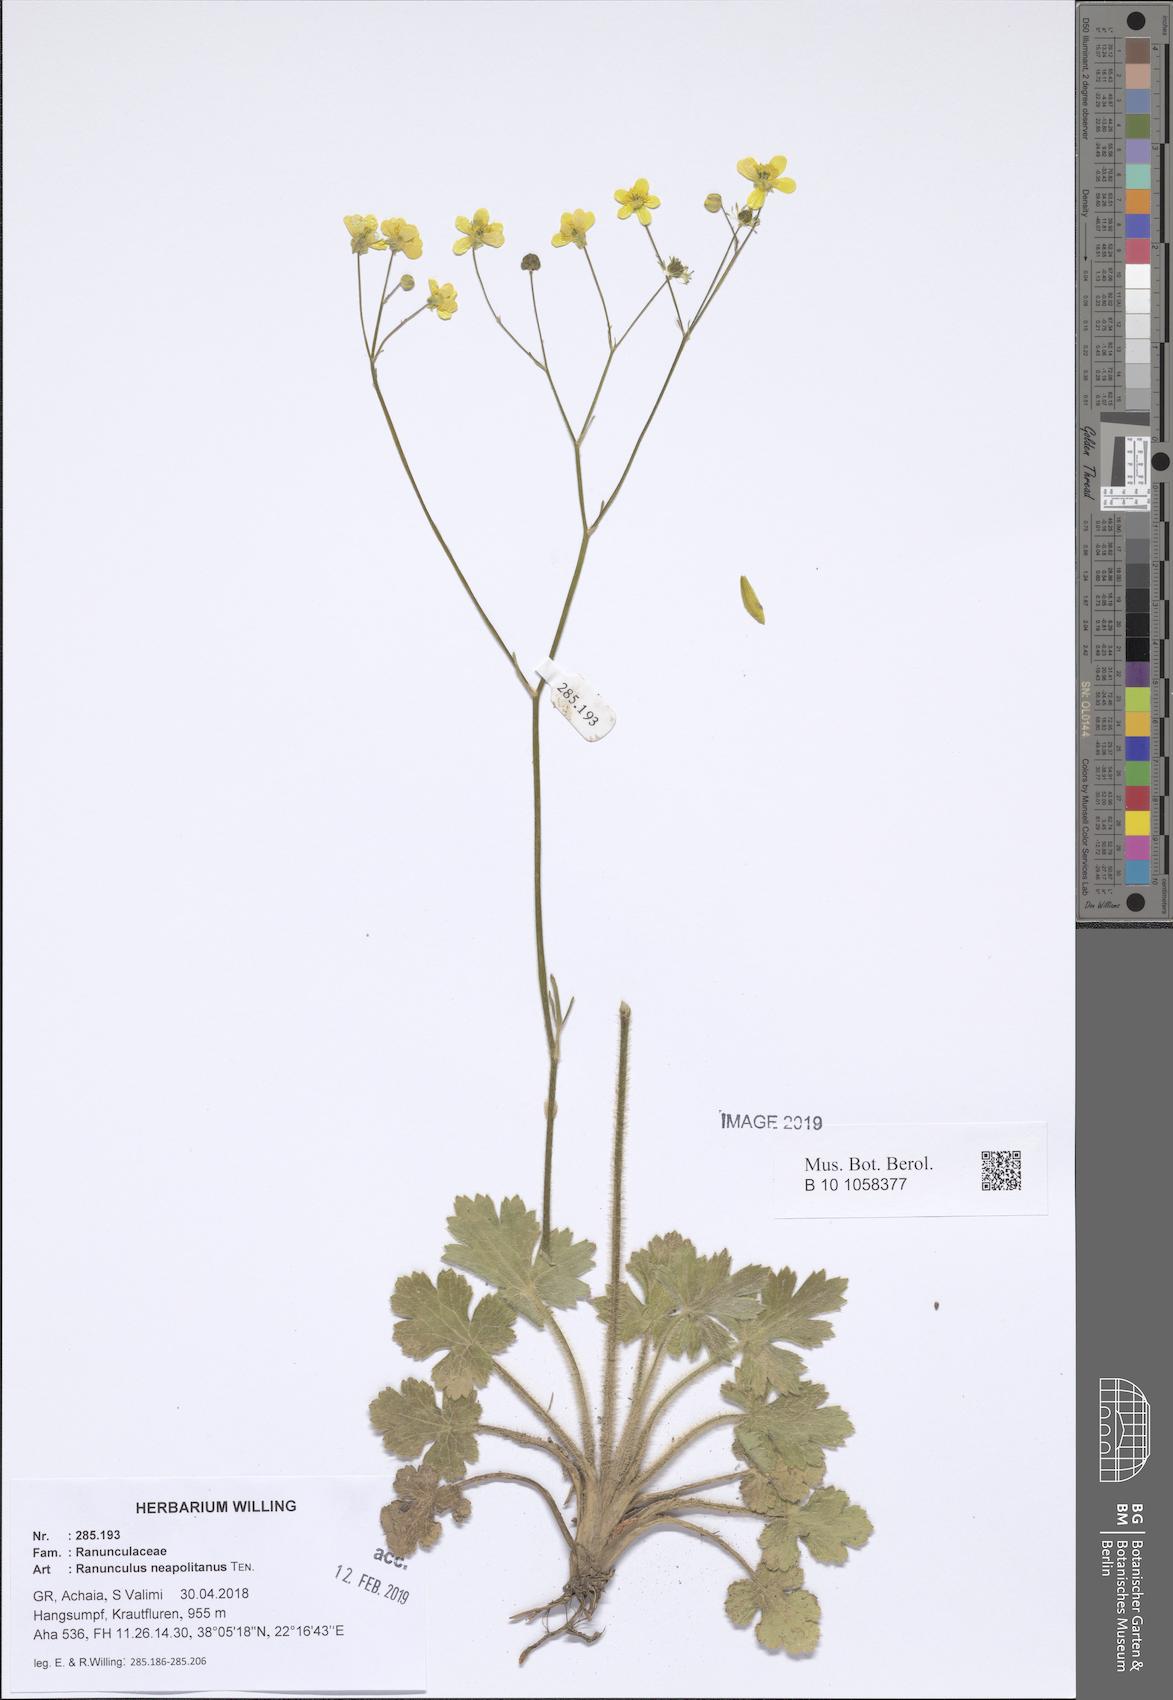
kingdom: Plantae
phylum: Tracheophyta
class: Magnoliopsida
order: Ranunculales
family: Ranunculaceae
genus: Ranunculus
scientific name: Ranunculus neapolitanus
